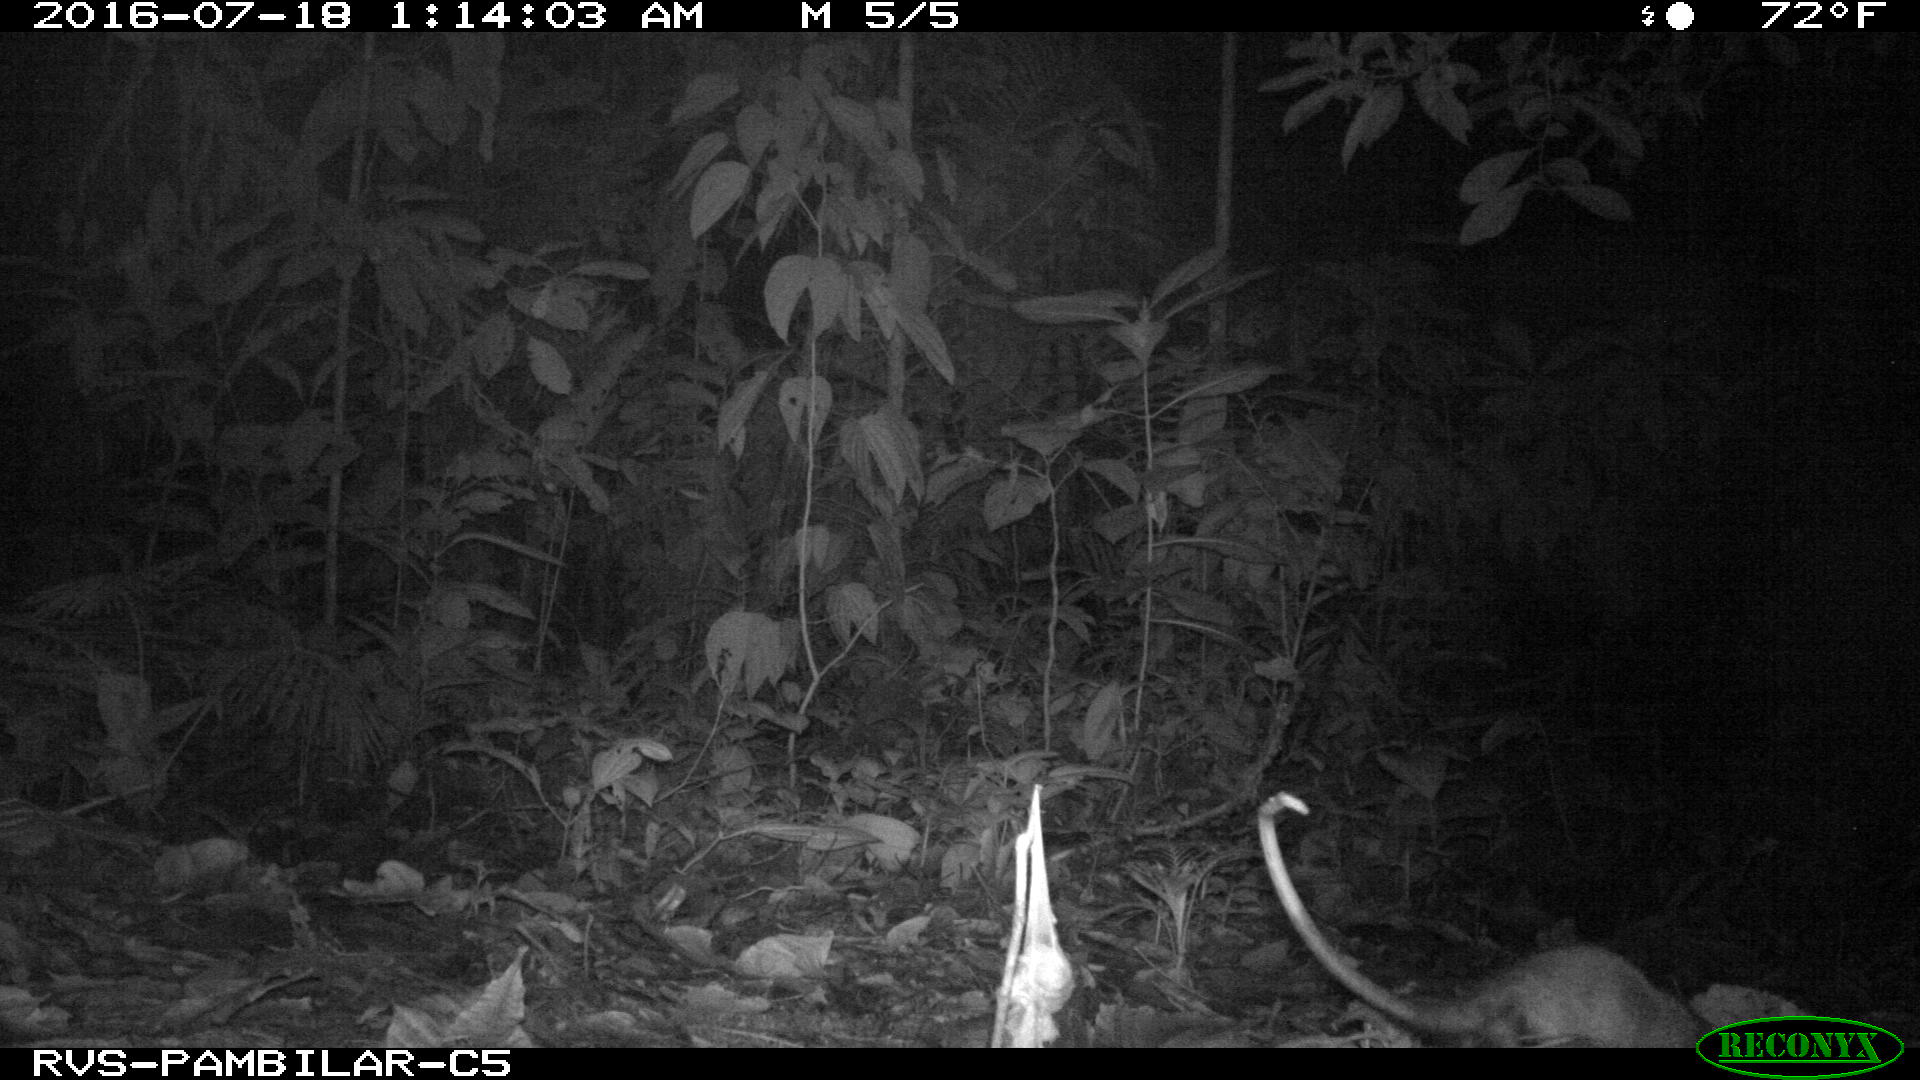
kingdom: Animalia
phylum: Chordata
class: Mammalia
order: Didelphimorphia
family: Didelphidae
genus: Didelphis
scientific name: Didelphis marsupialis
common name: Common opossum
